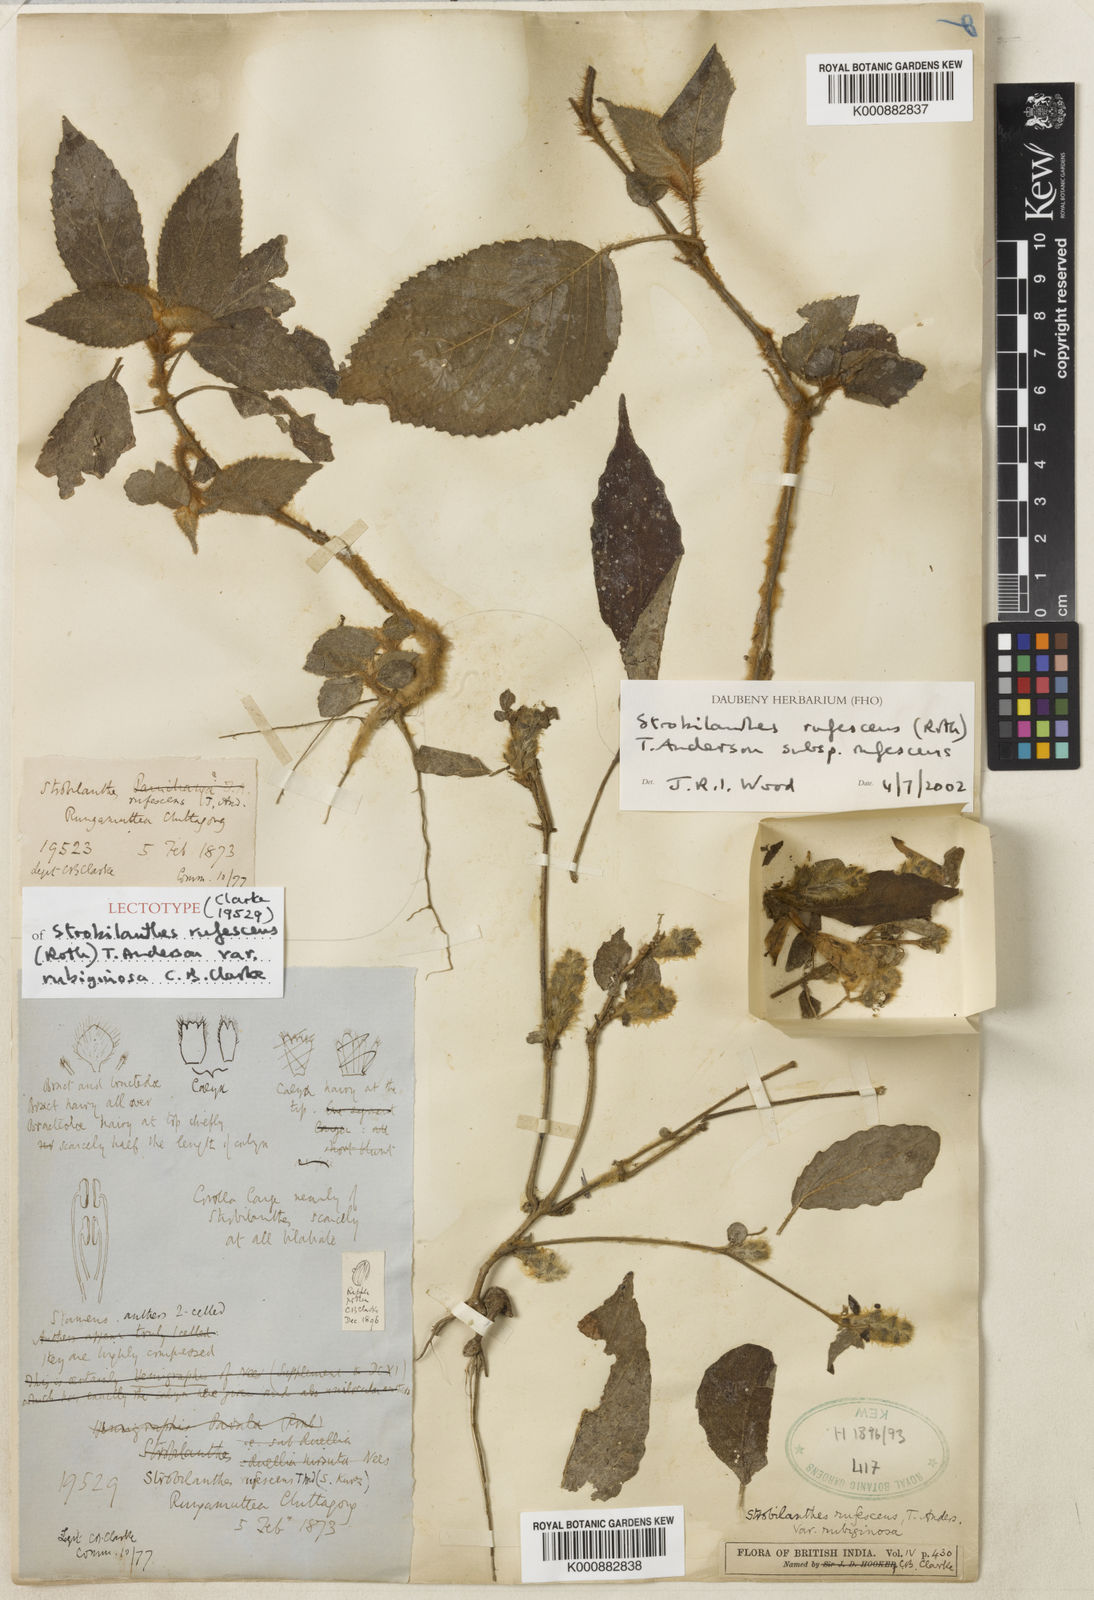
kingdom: Plantae
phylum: Tracheophyta
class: Magnoliopsida
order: Lamiales
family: Acanthaceae
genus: Strobilanthes
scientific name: Strobilanthes rufescens
